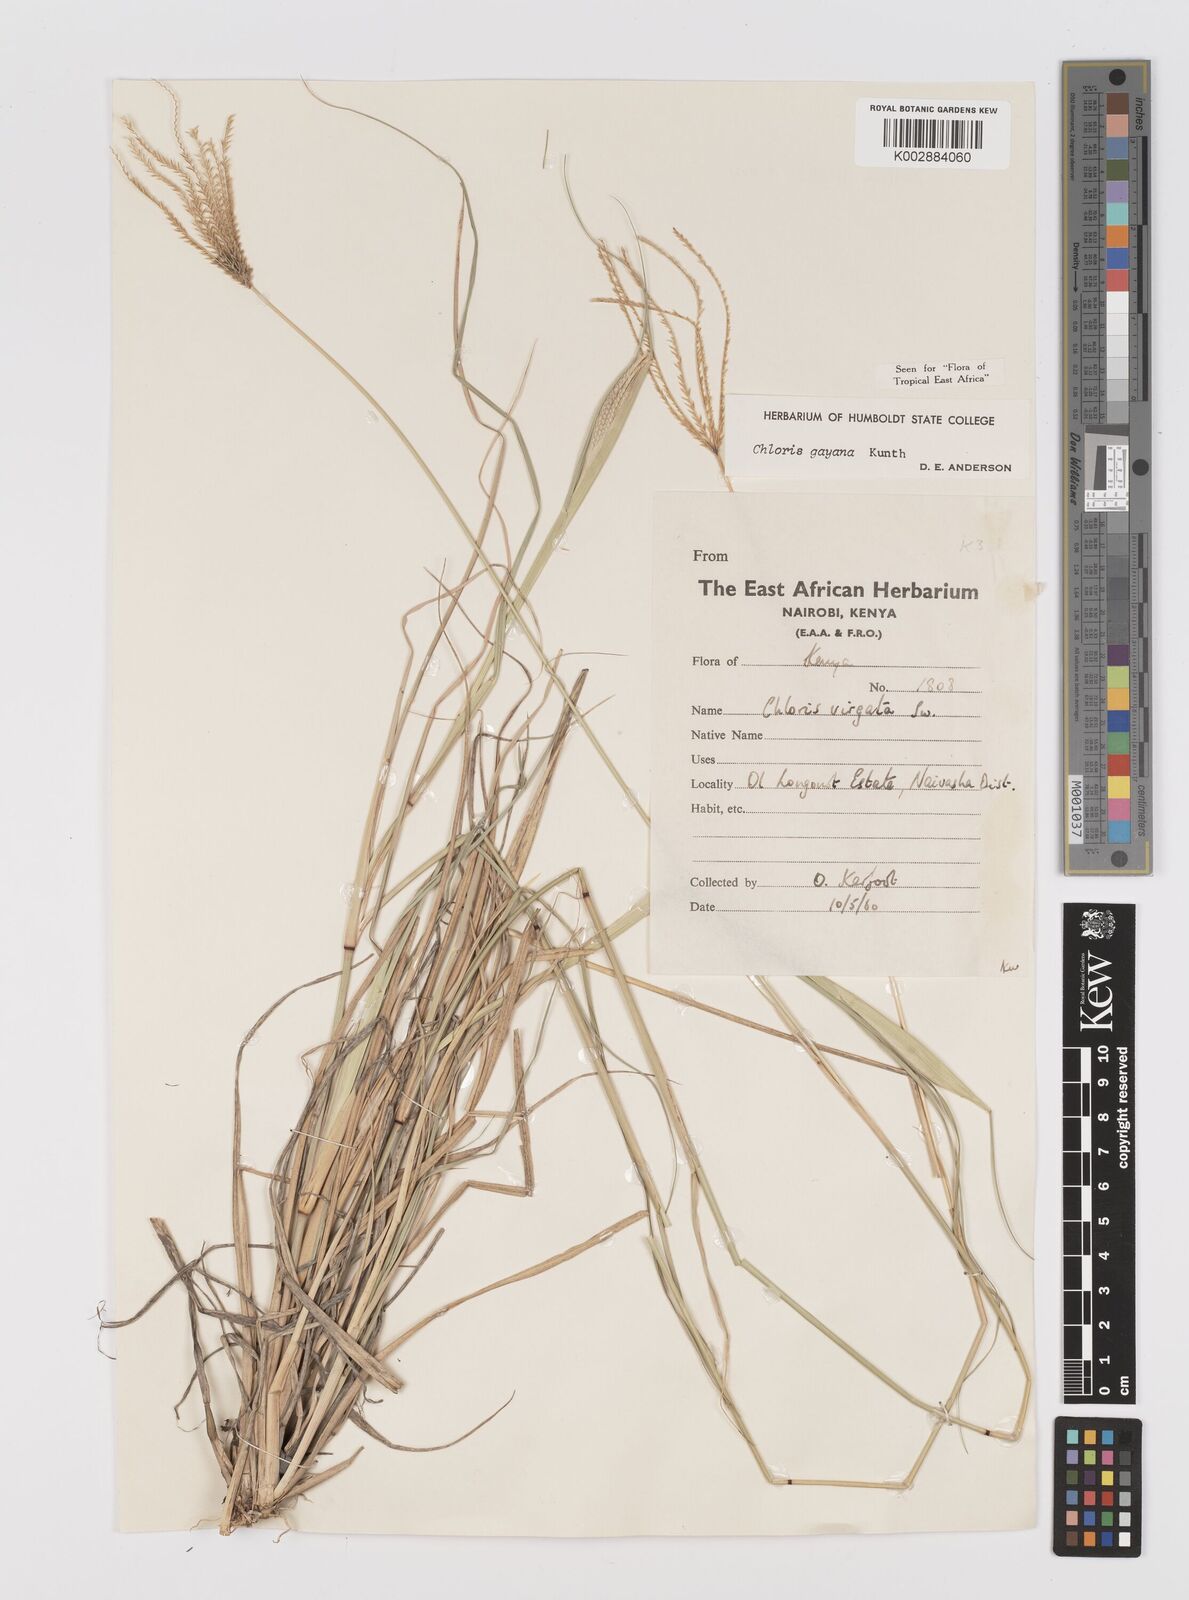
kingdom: Plantae
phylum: Tracheophyta
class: Liliopsida
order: Poales
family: Poaceae
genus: Chloris
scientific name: Chloris gayana
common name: Rhodes grass
